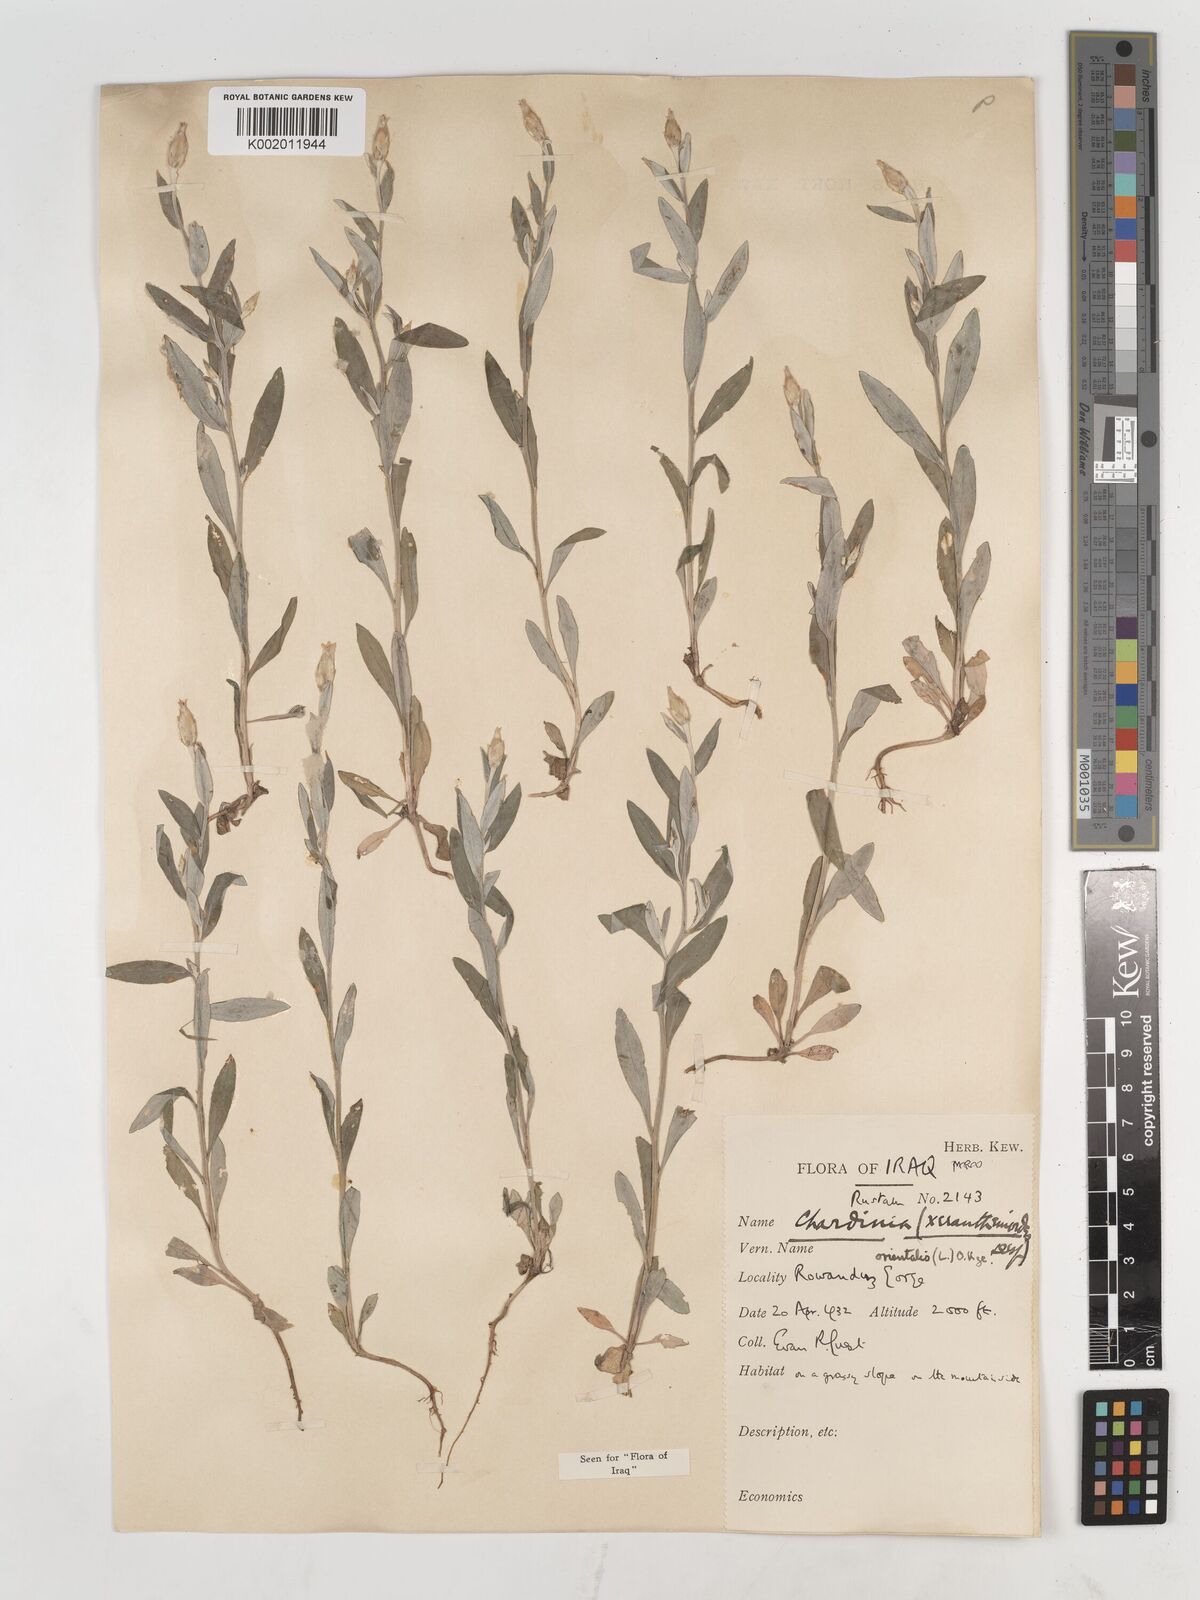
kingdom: Plantae
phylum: Tracheophyta
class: Magnoliopsida
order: Asterales
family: Asteraceae
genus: Chardinia
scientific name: Chardinia orientalis
